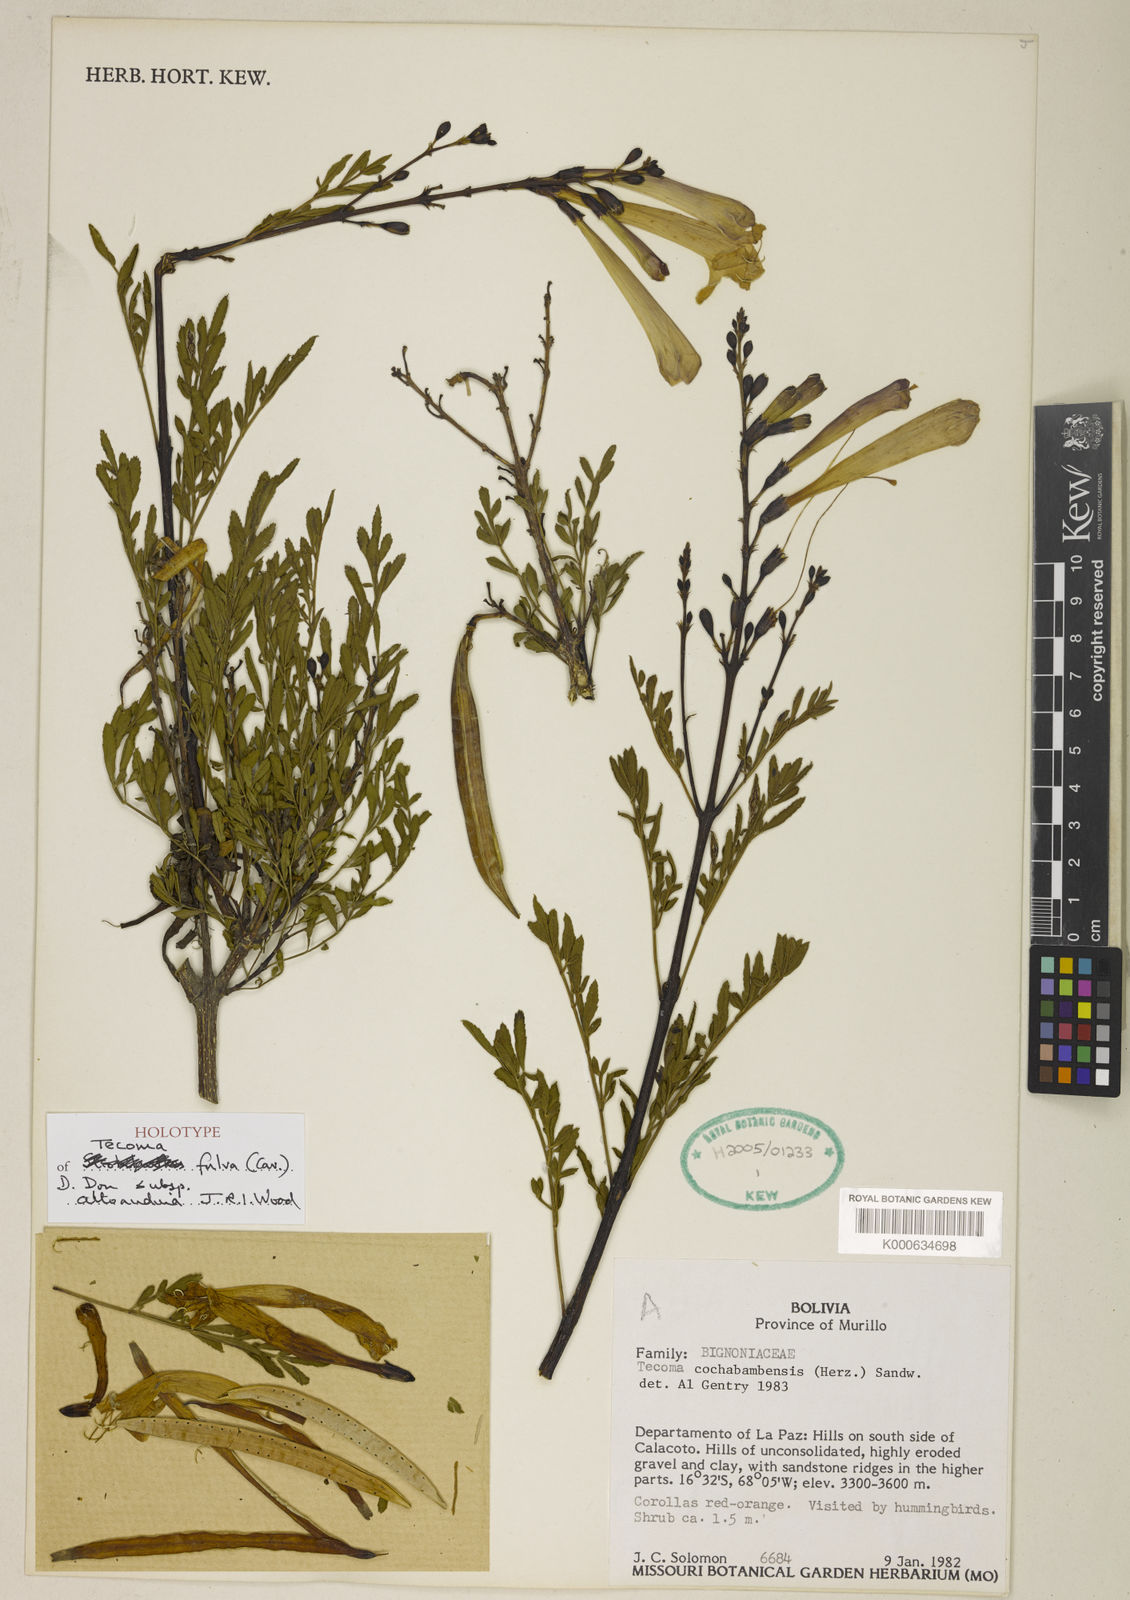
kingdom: Plantae
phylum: Tracheophyta
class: Magnoliopsida
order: Lamiales
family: Bignoniaceae
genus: Tecoma
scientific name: Tecoma fulva
